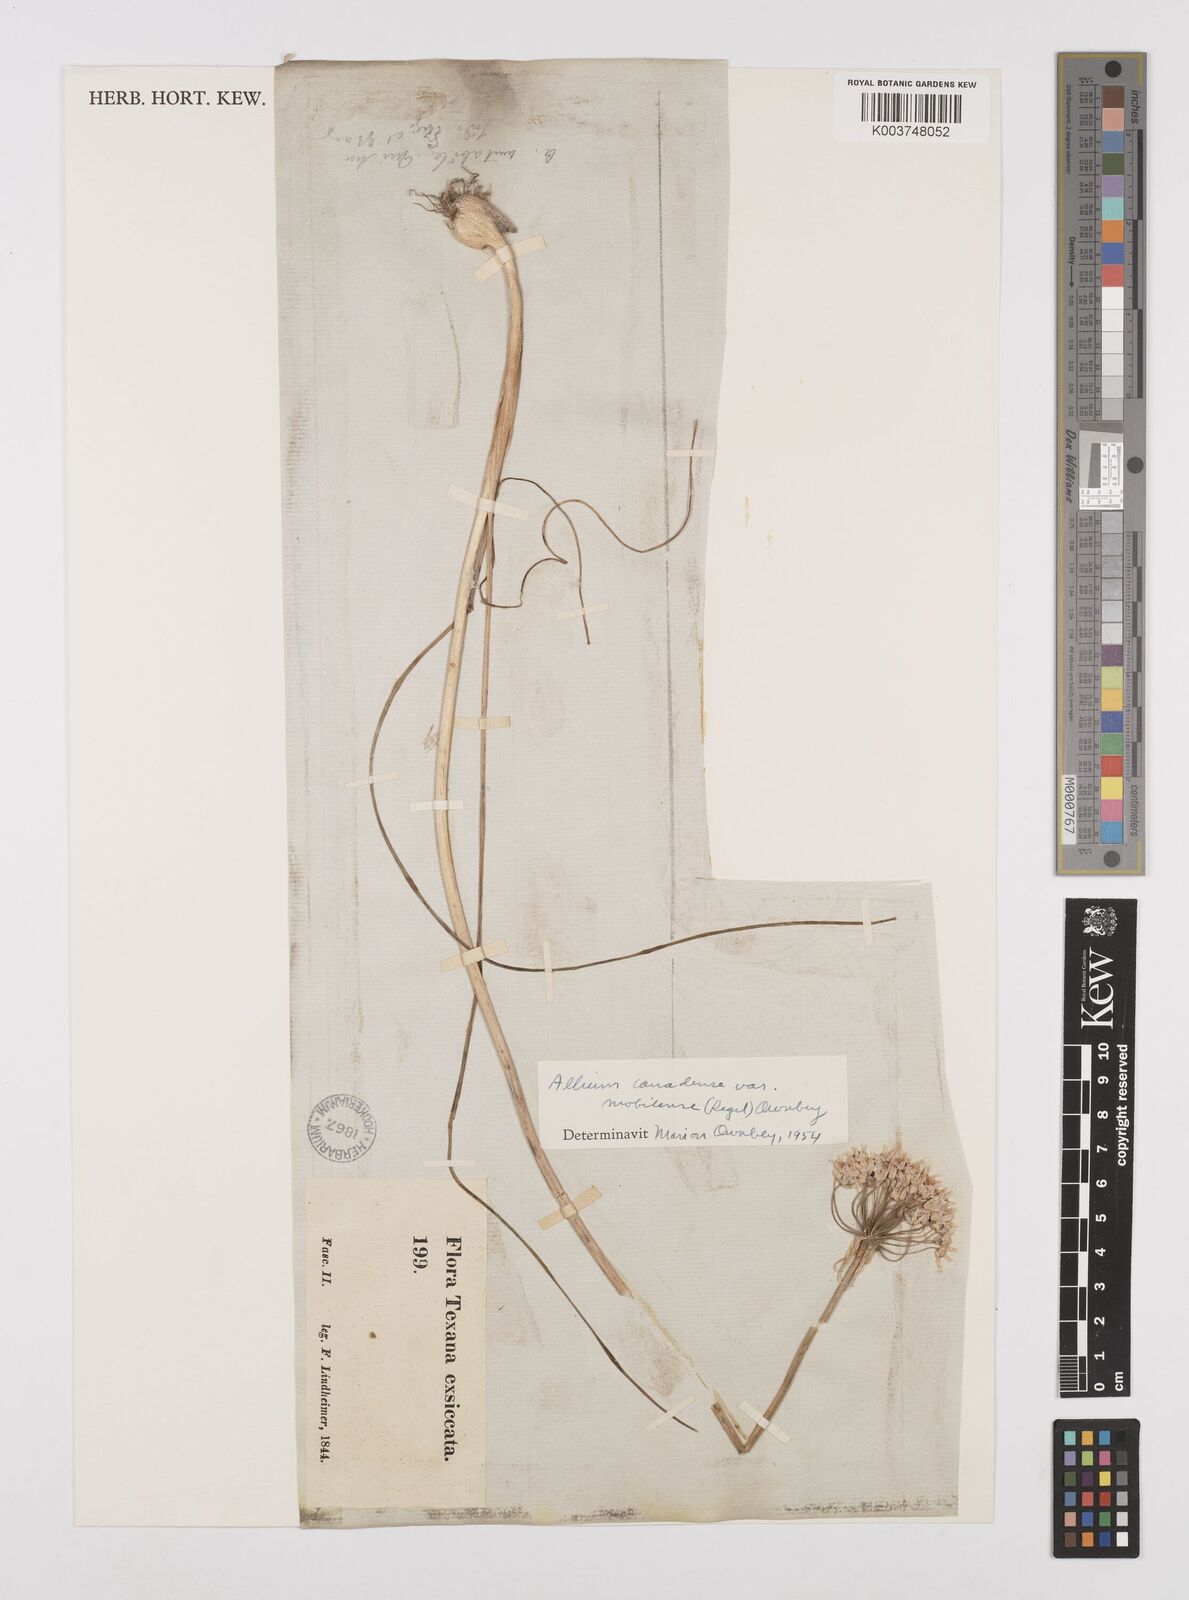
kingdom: Plantae
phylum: Tracheophyta
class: Liliopsida
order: Asparagales
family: Amaryllidaceae
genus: Allium
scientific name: Allium canadense
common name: Meadow garlic
